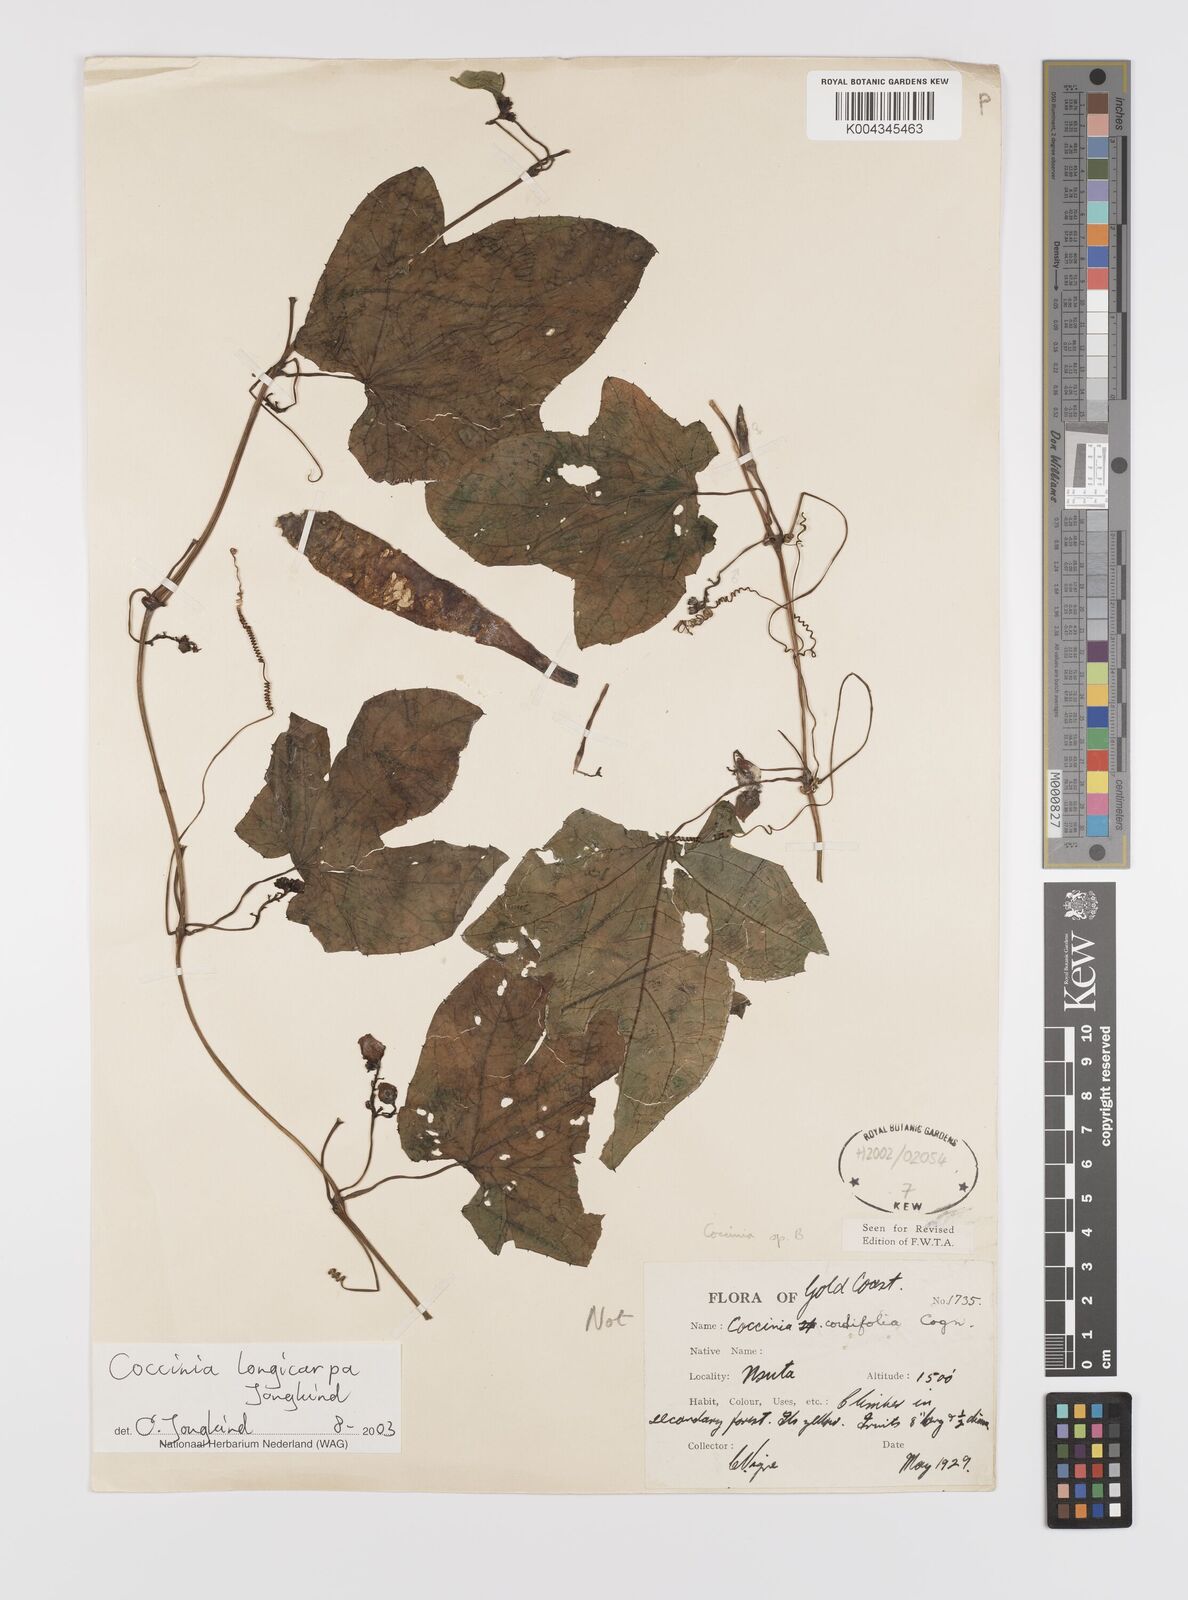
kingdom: Plantae
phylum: Tracheophyta
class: Magnoliopsida
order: Cucurbitales
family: Cucurbitaceae
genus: Coccinia
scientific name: Coccinia longicarpa
